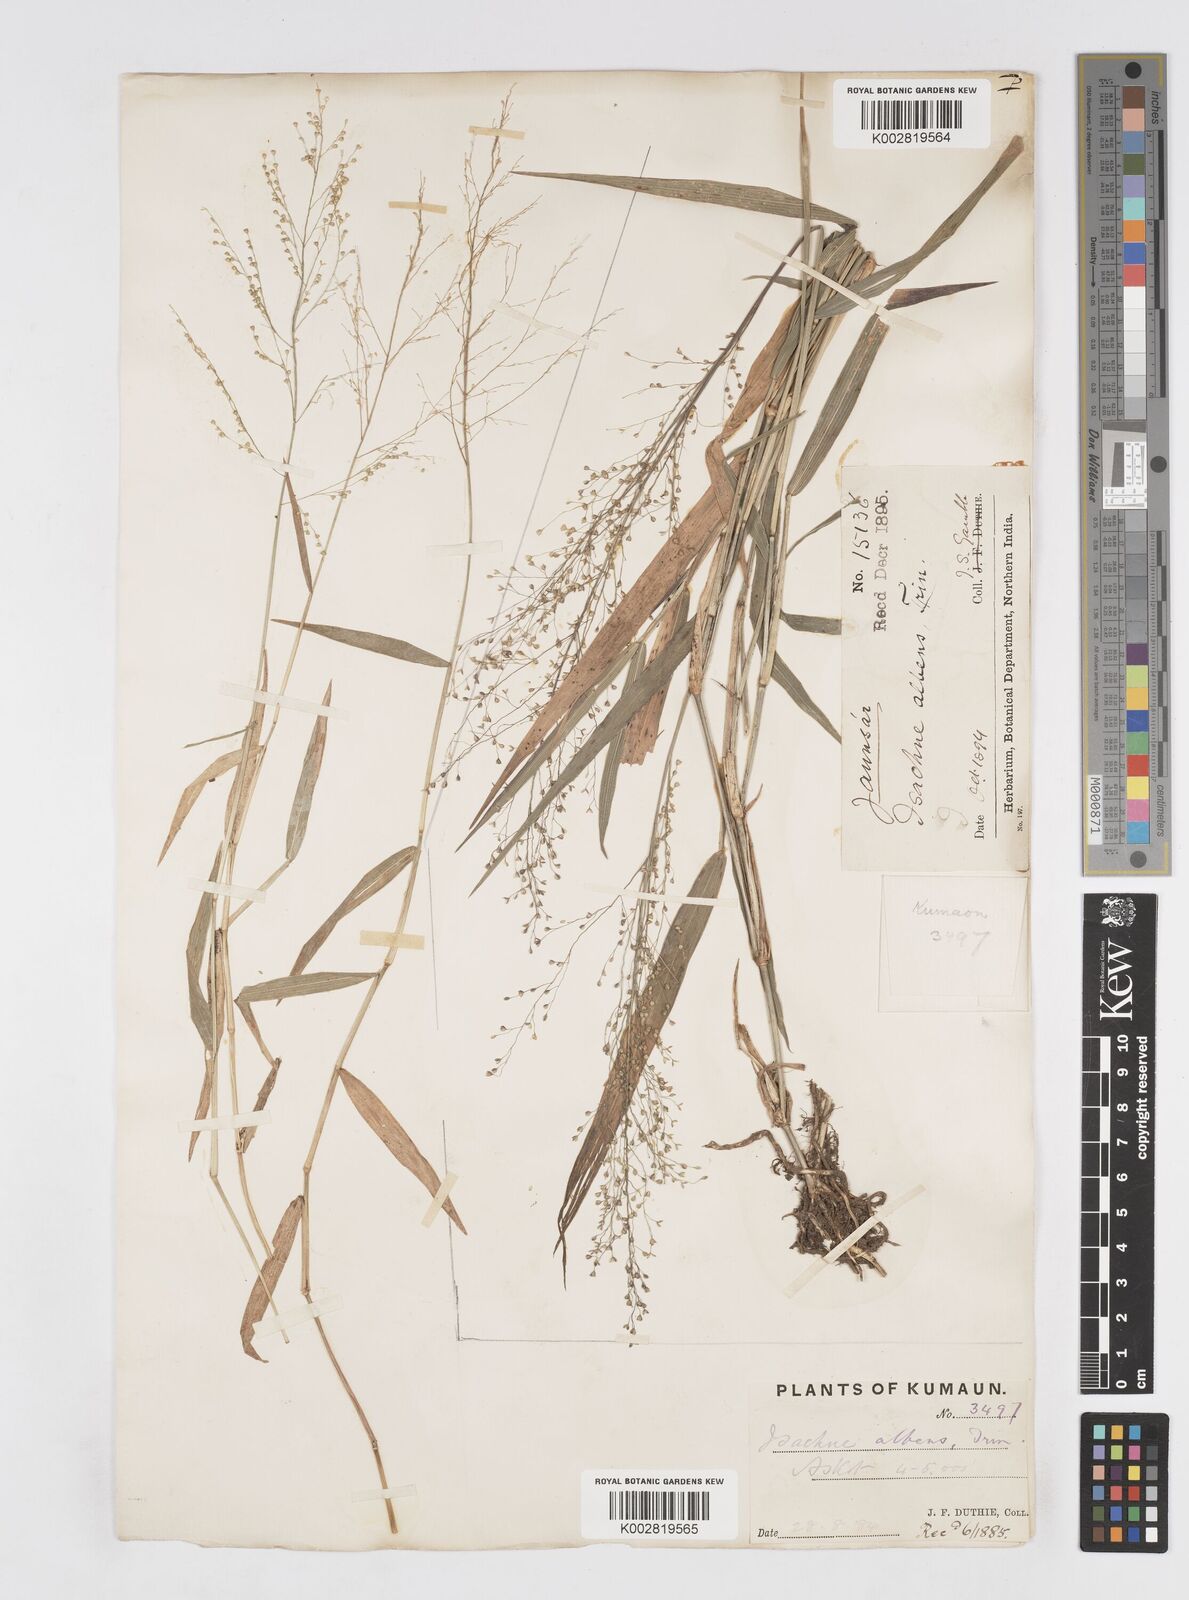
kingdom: Plantae
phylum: Tracheophyta
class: Liliopsida
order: Poales
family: Poaceae
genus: Isachne
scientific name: Isachne albens
